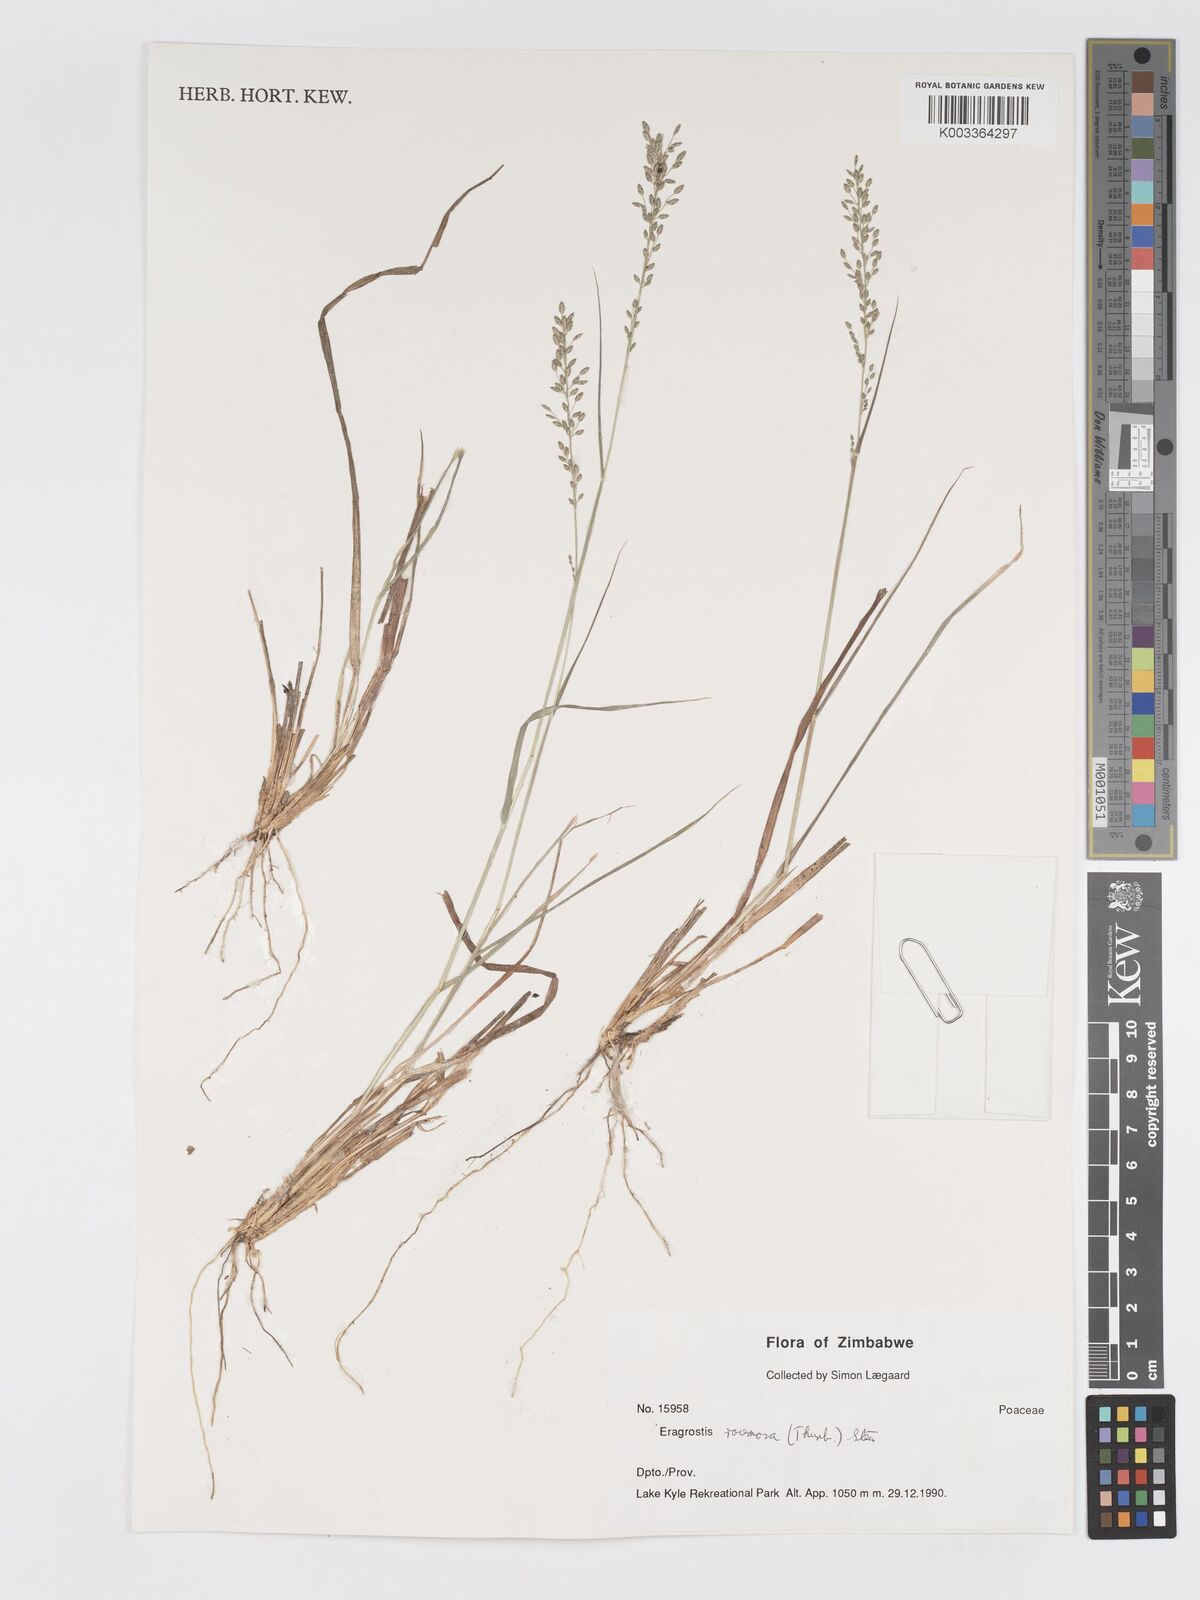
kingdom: Plantae
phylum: Tracheophyta
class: Liliopsida
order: Poales
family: Poaceae
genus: Eragrostis
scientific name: Eragrostis racemosa
